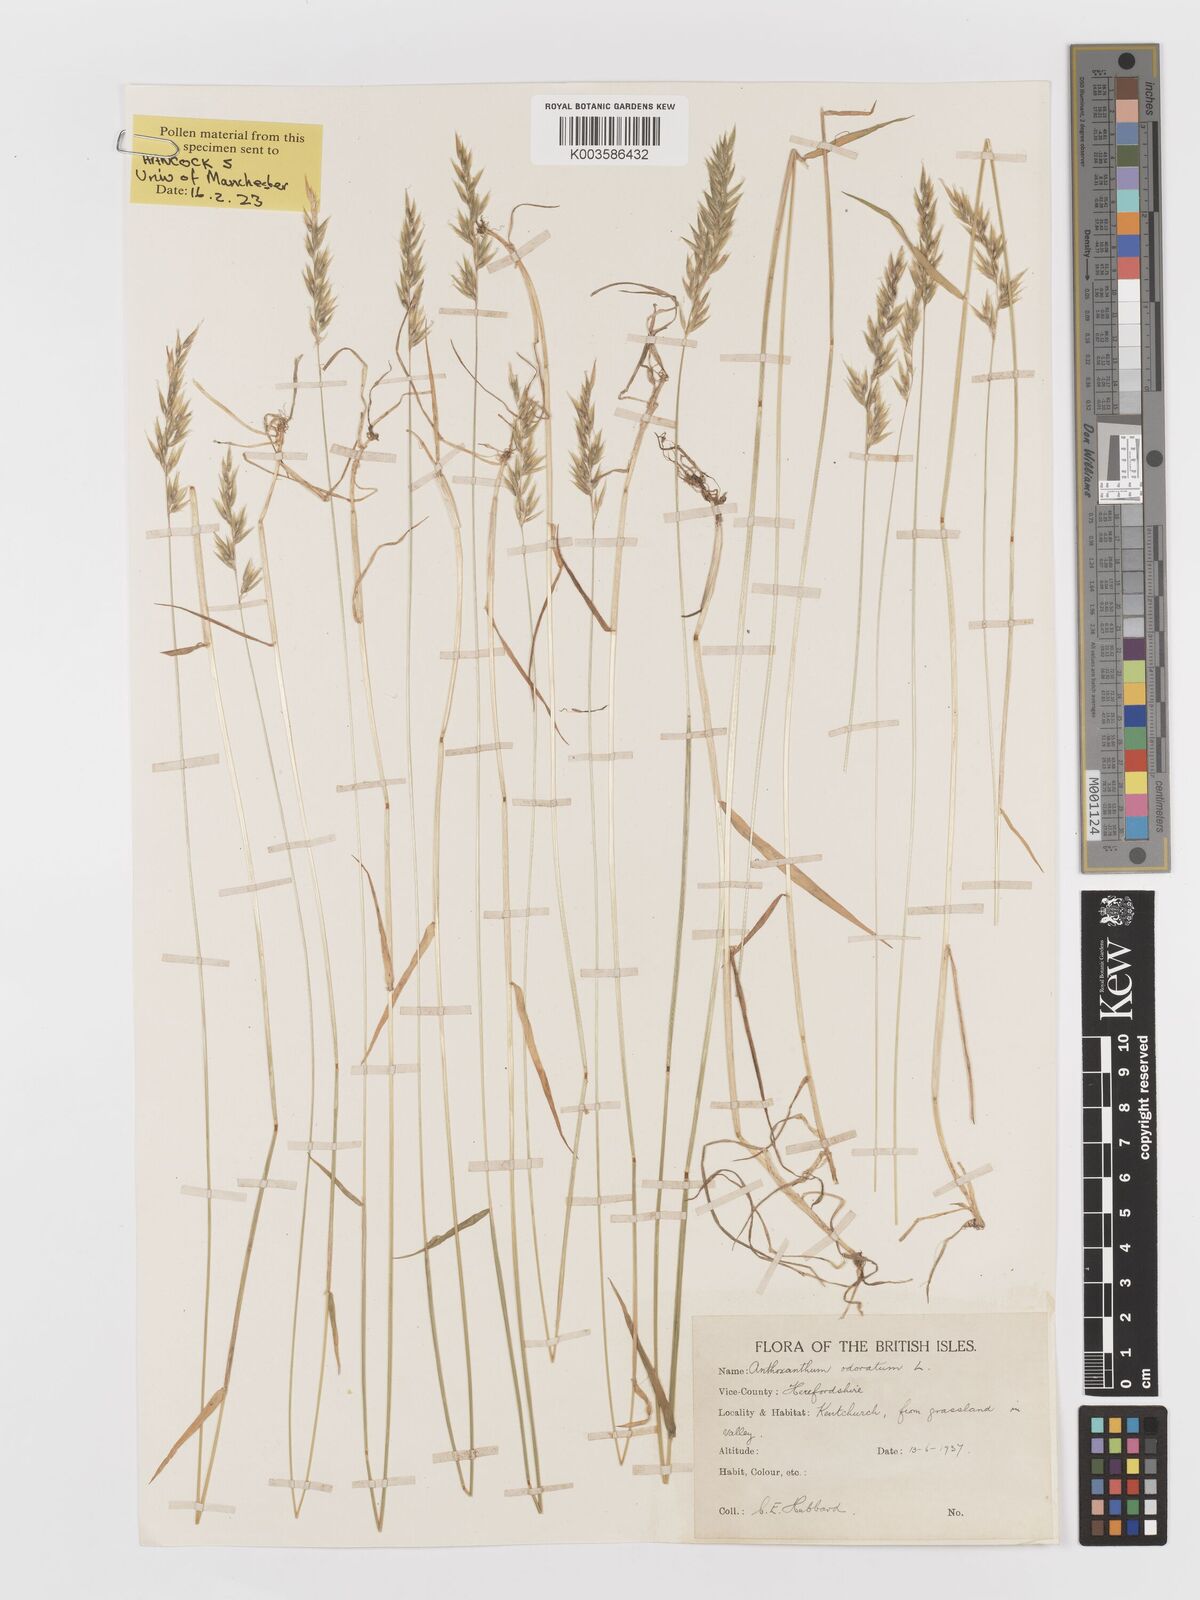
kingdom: Plantae
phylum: Tracheophyta
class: Liliopsida
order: Poales
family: Poaceae
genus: Anthoxanthum
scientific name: Anthoxanthum odoratum
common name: Sweet vernalgrass
